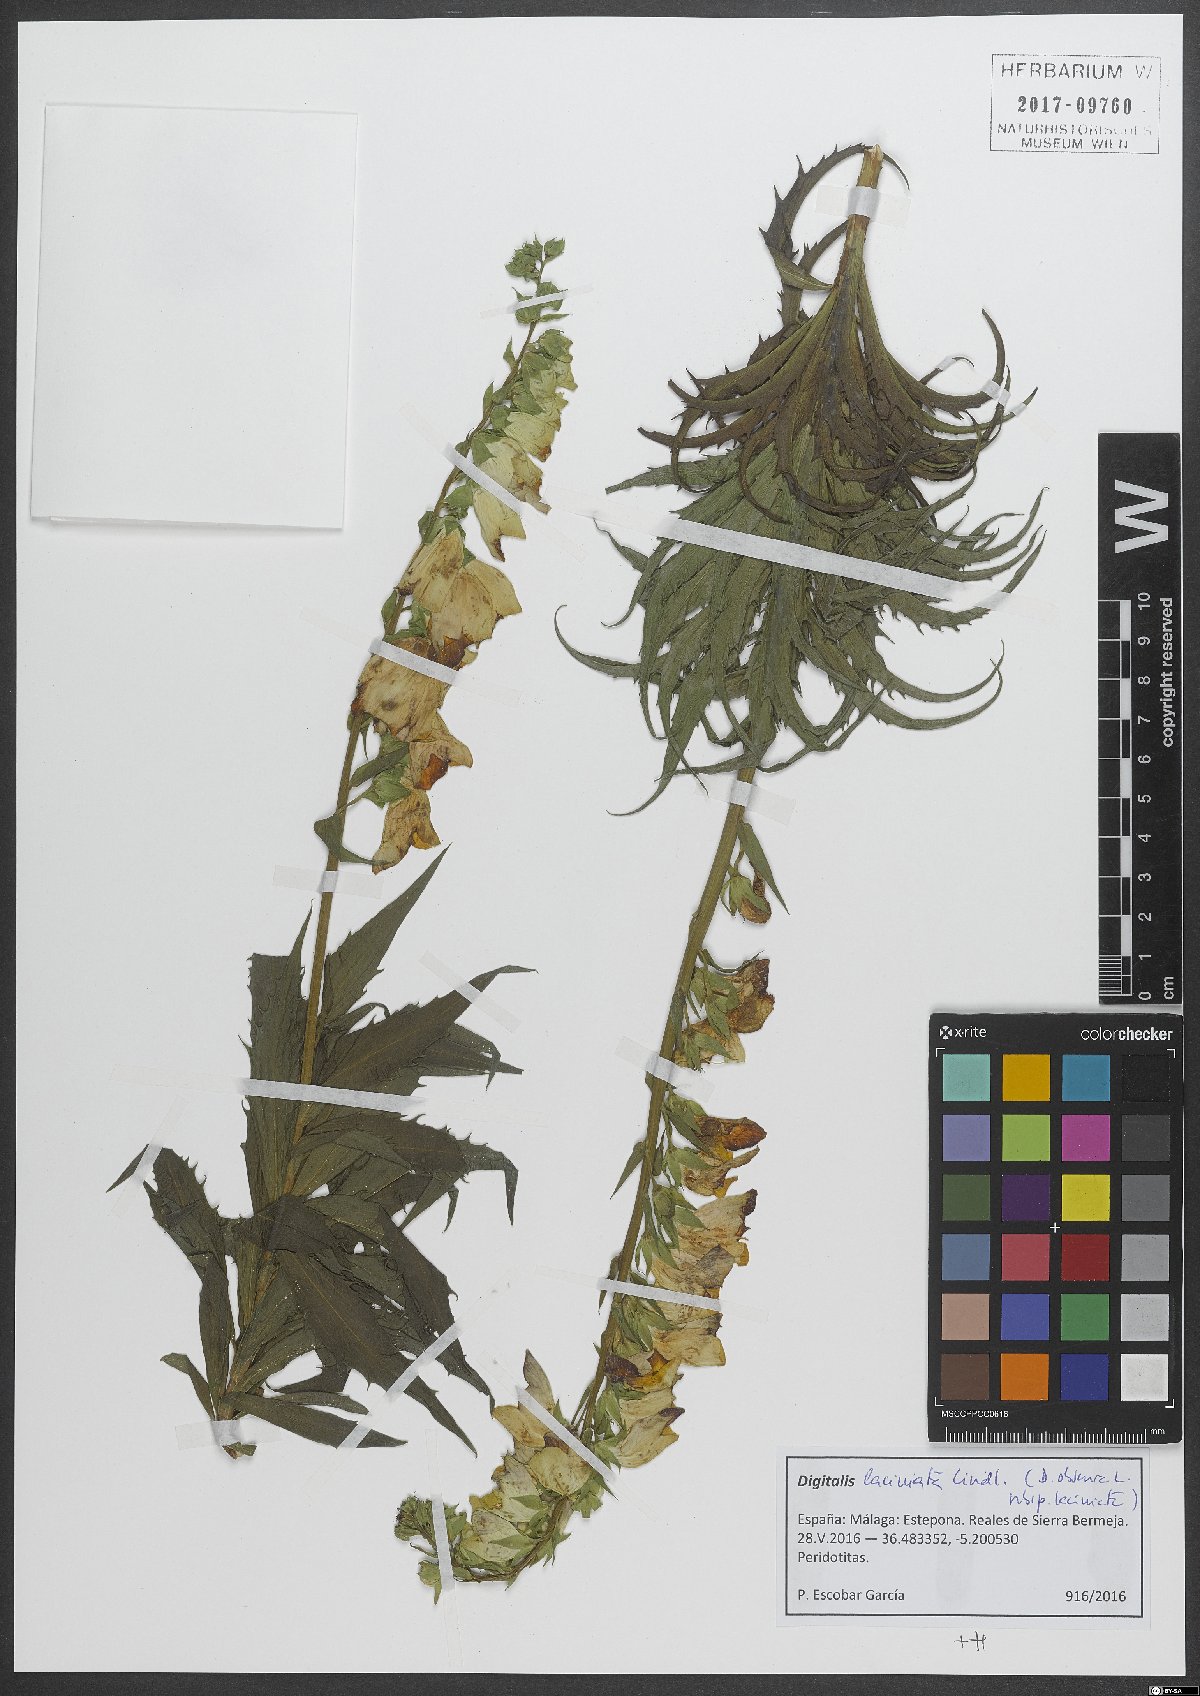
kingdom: Plantae
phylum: Tracheophyta
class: Magnoliopsida
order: Lamiales
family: Plantaginaceae
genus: Digitalis
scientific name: Digitalis obscura
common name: Willow-leaf foxglove
